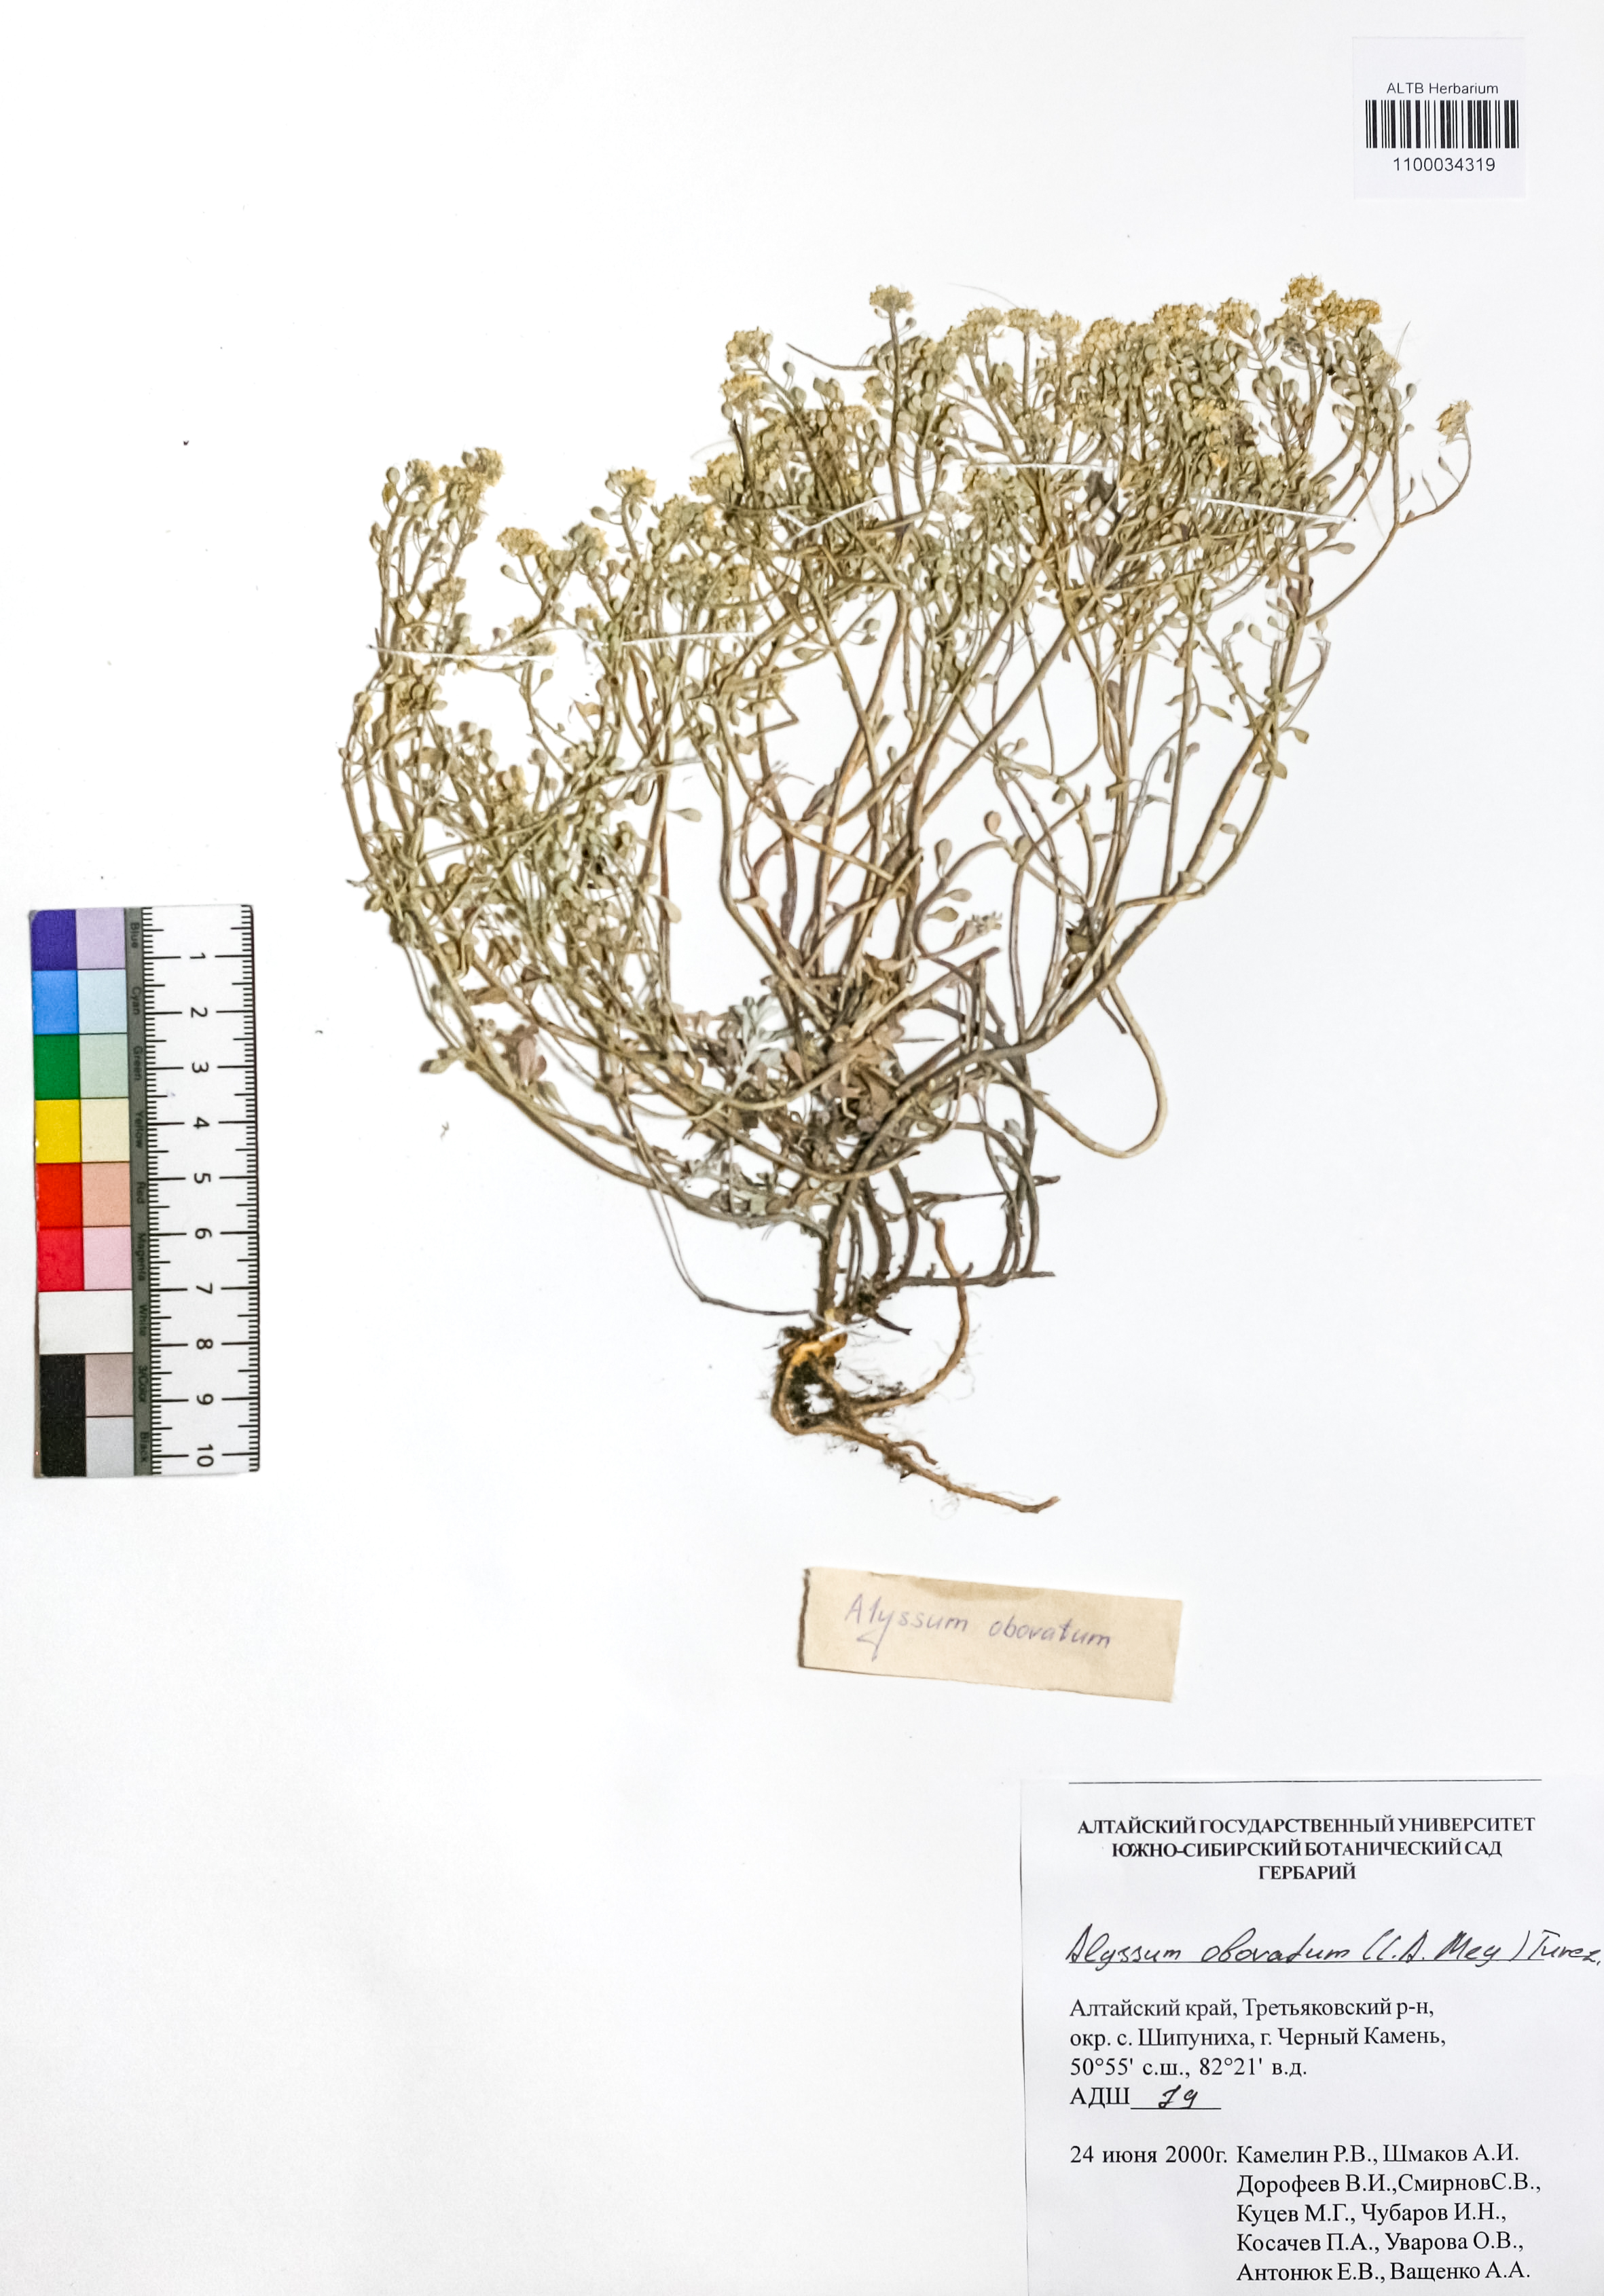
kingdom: Plantae
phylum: Tracheophyta
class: Magnoliopsida
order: Brassicales
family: Brassicaceae
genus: Odontarrhena
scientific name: Odontarrhena obovata
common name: American alyssum
